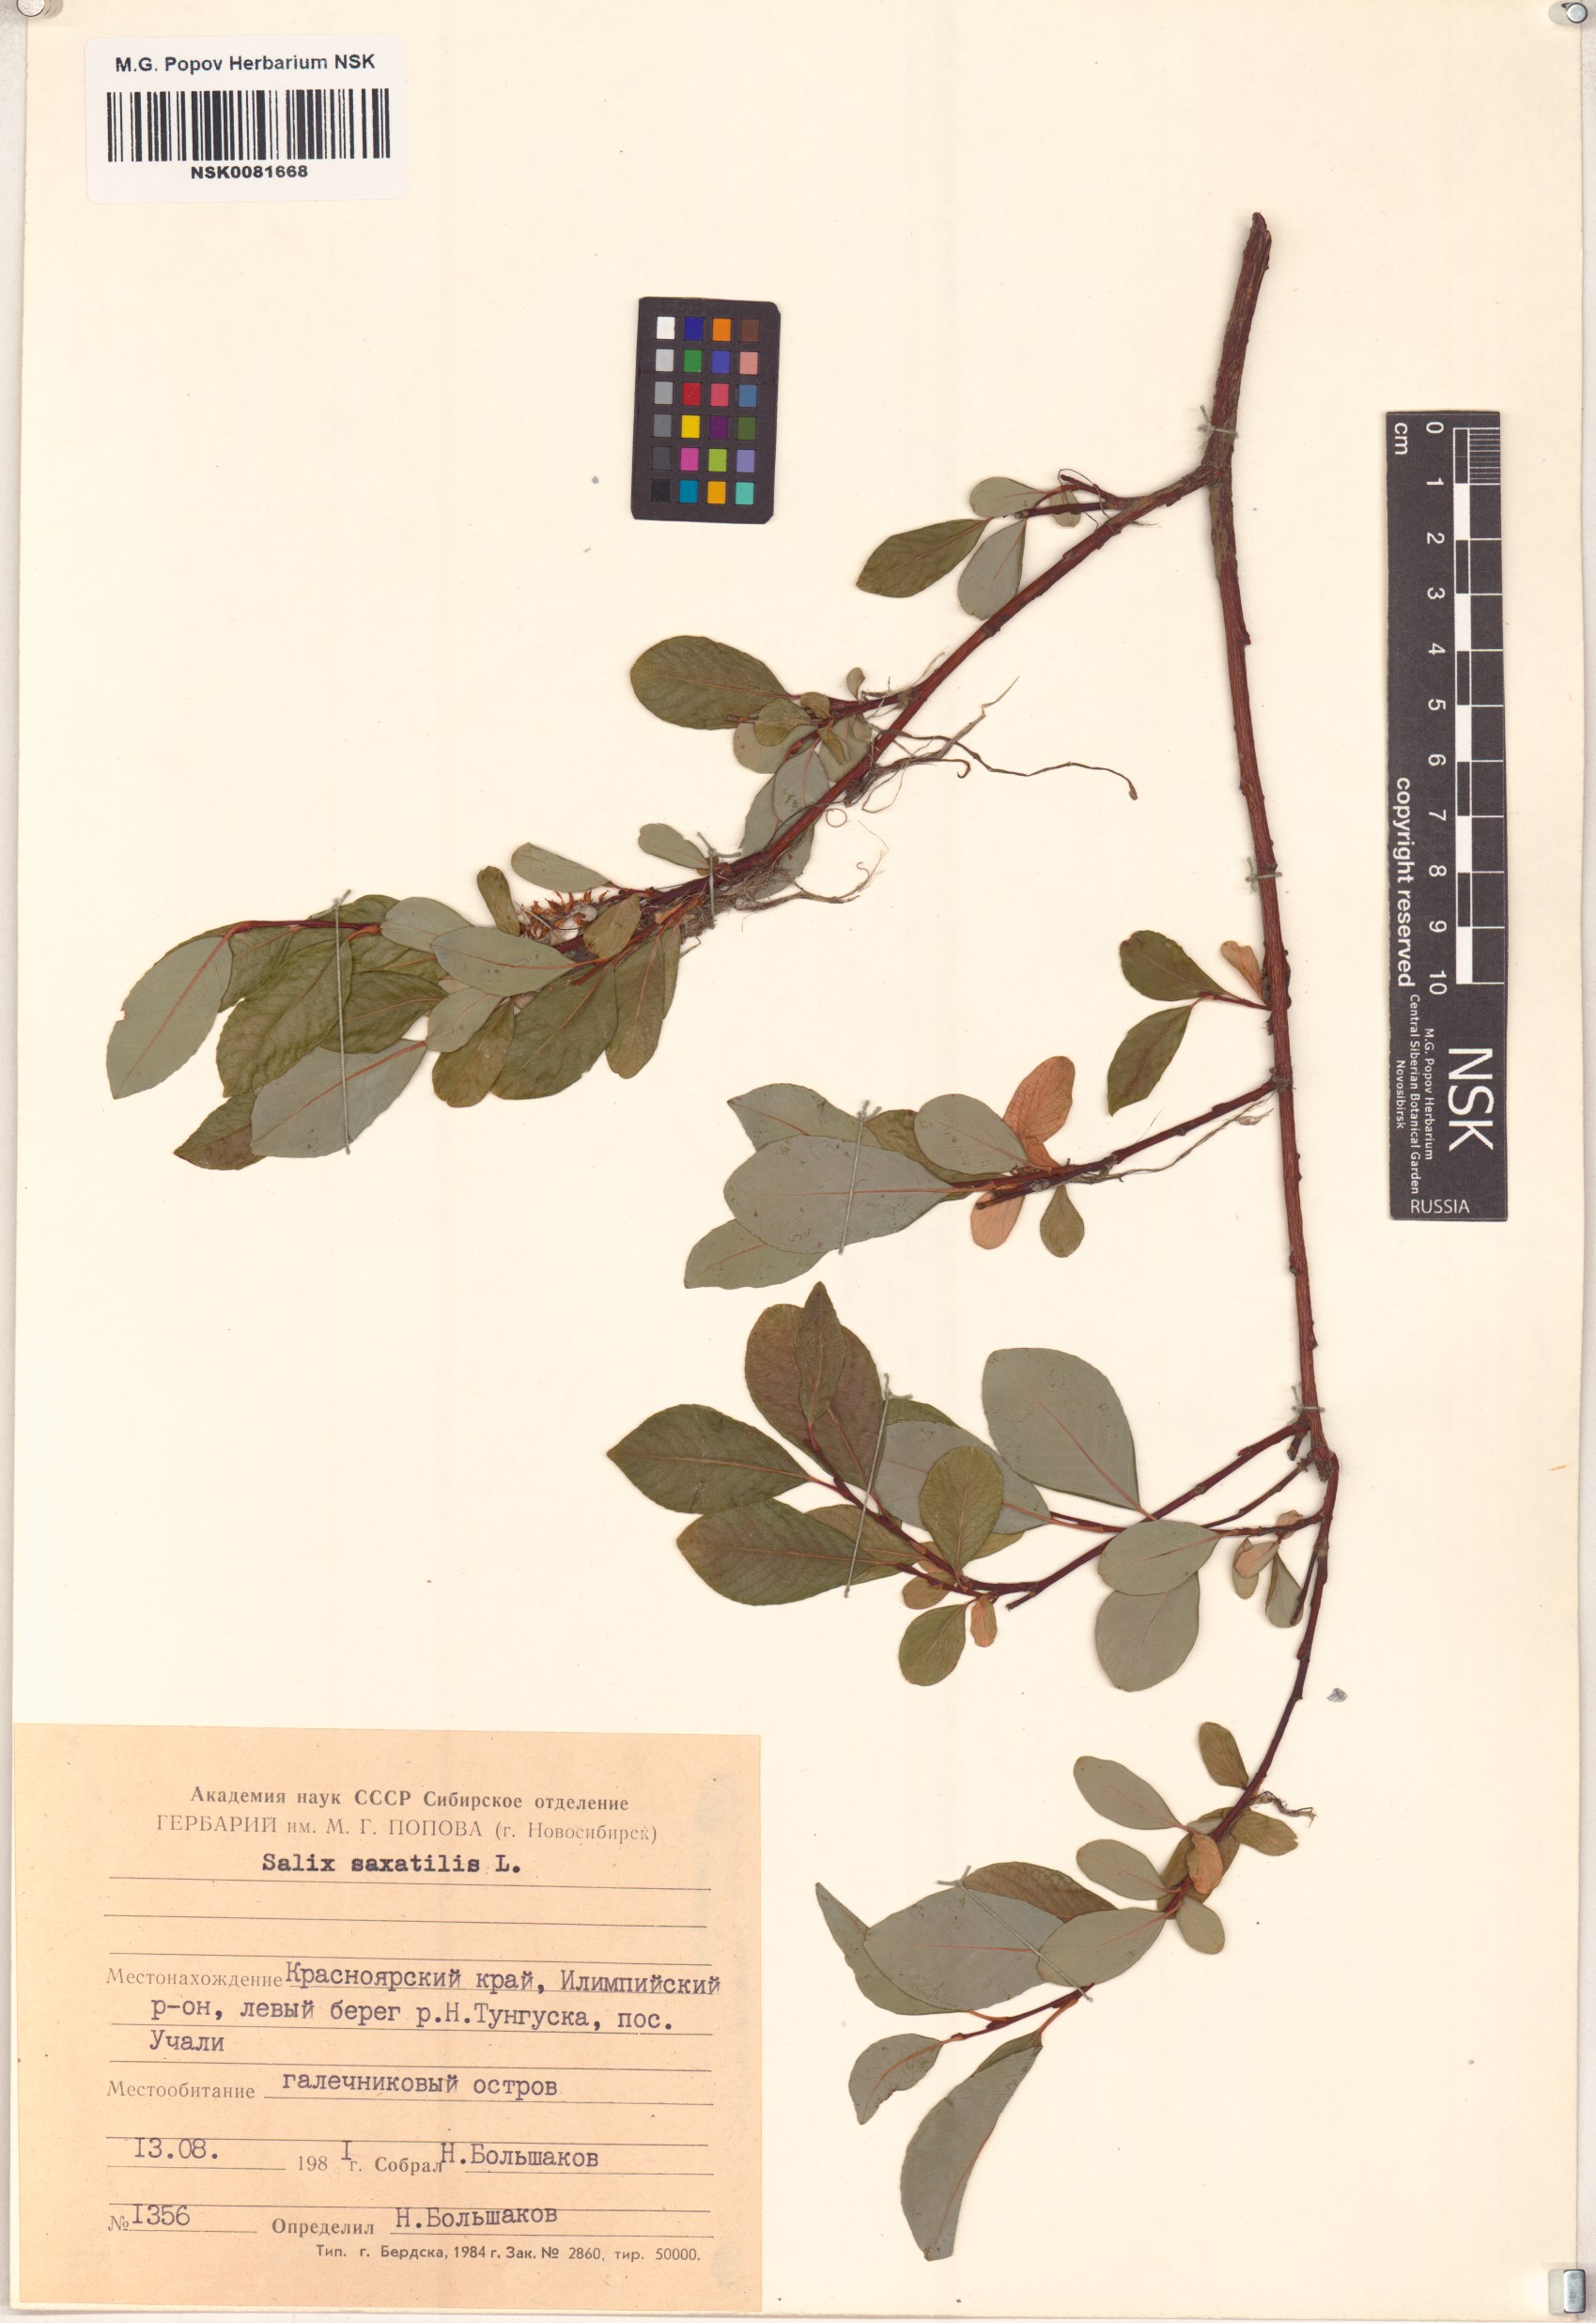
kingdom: Plantae
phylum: Tracheophyta
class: Magnoliopsida
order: Malpighiales
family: Salicaceae
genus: Salix
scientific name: Salix saxatilis
